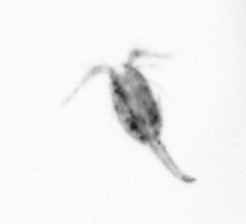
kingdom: Animalia
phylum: Arthropoda
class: Copepoda
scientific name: Copepoda
